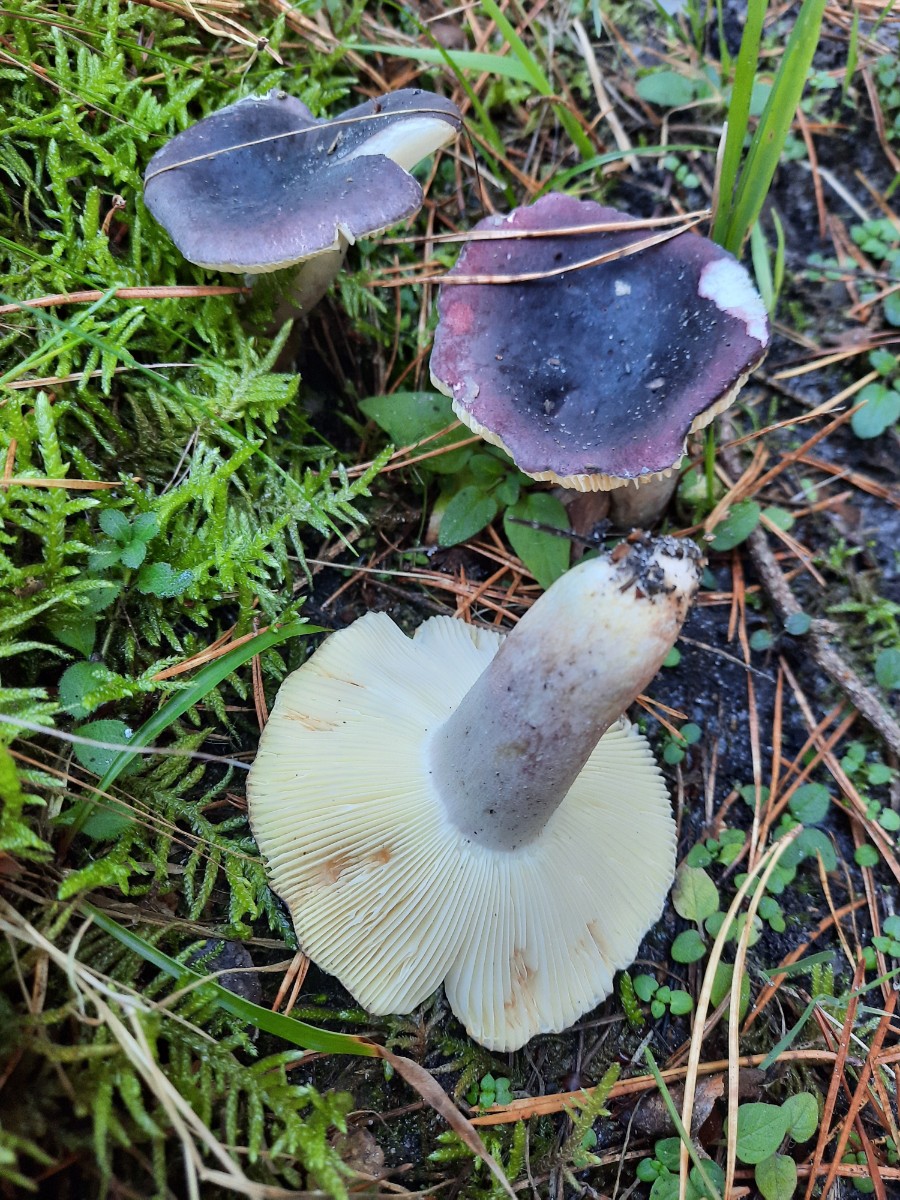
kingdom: Fungi
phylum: Basidiomycota
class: Agaricomycetes
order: Russulales
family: Russulaceae
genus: Russula
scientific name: Russula sardonia
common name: citronbladet skørhat
